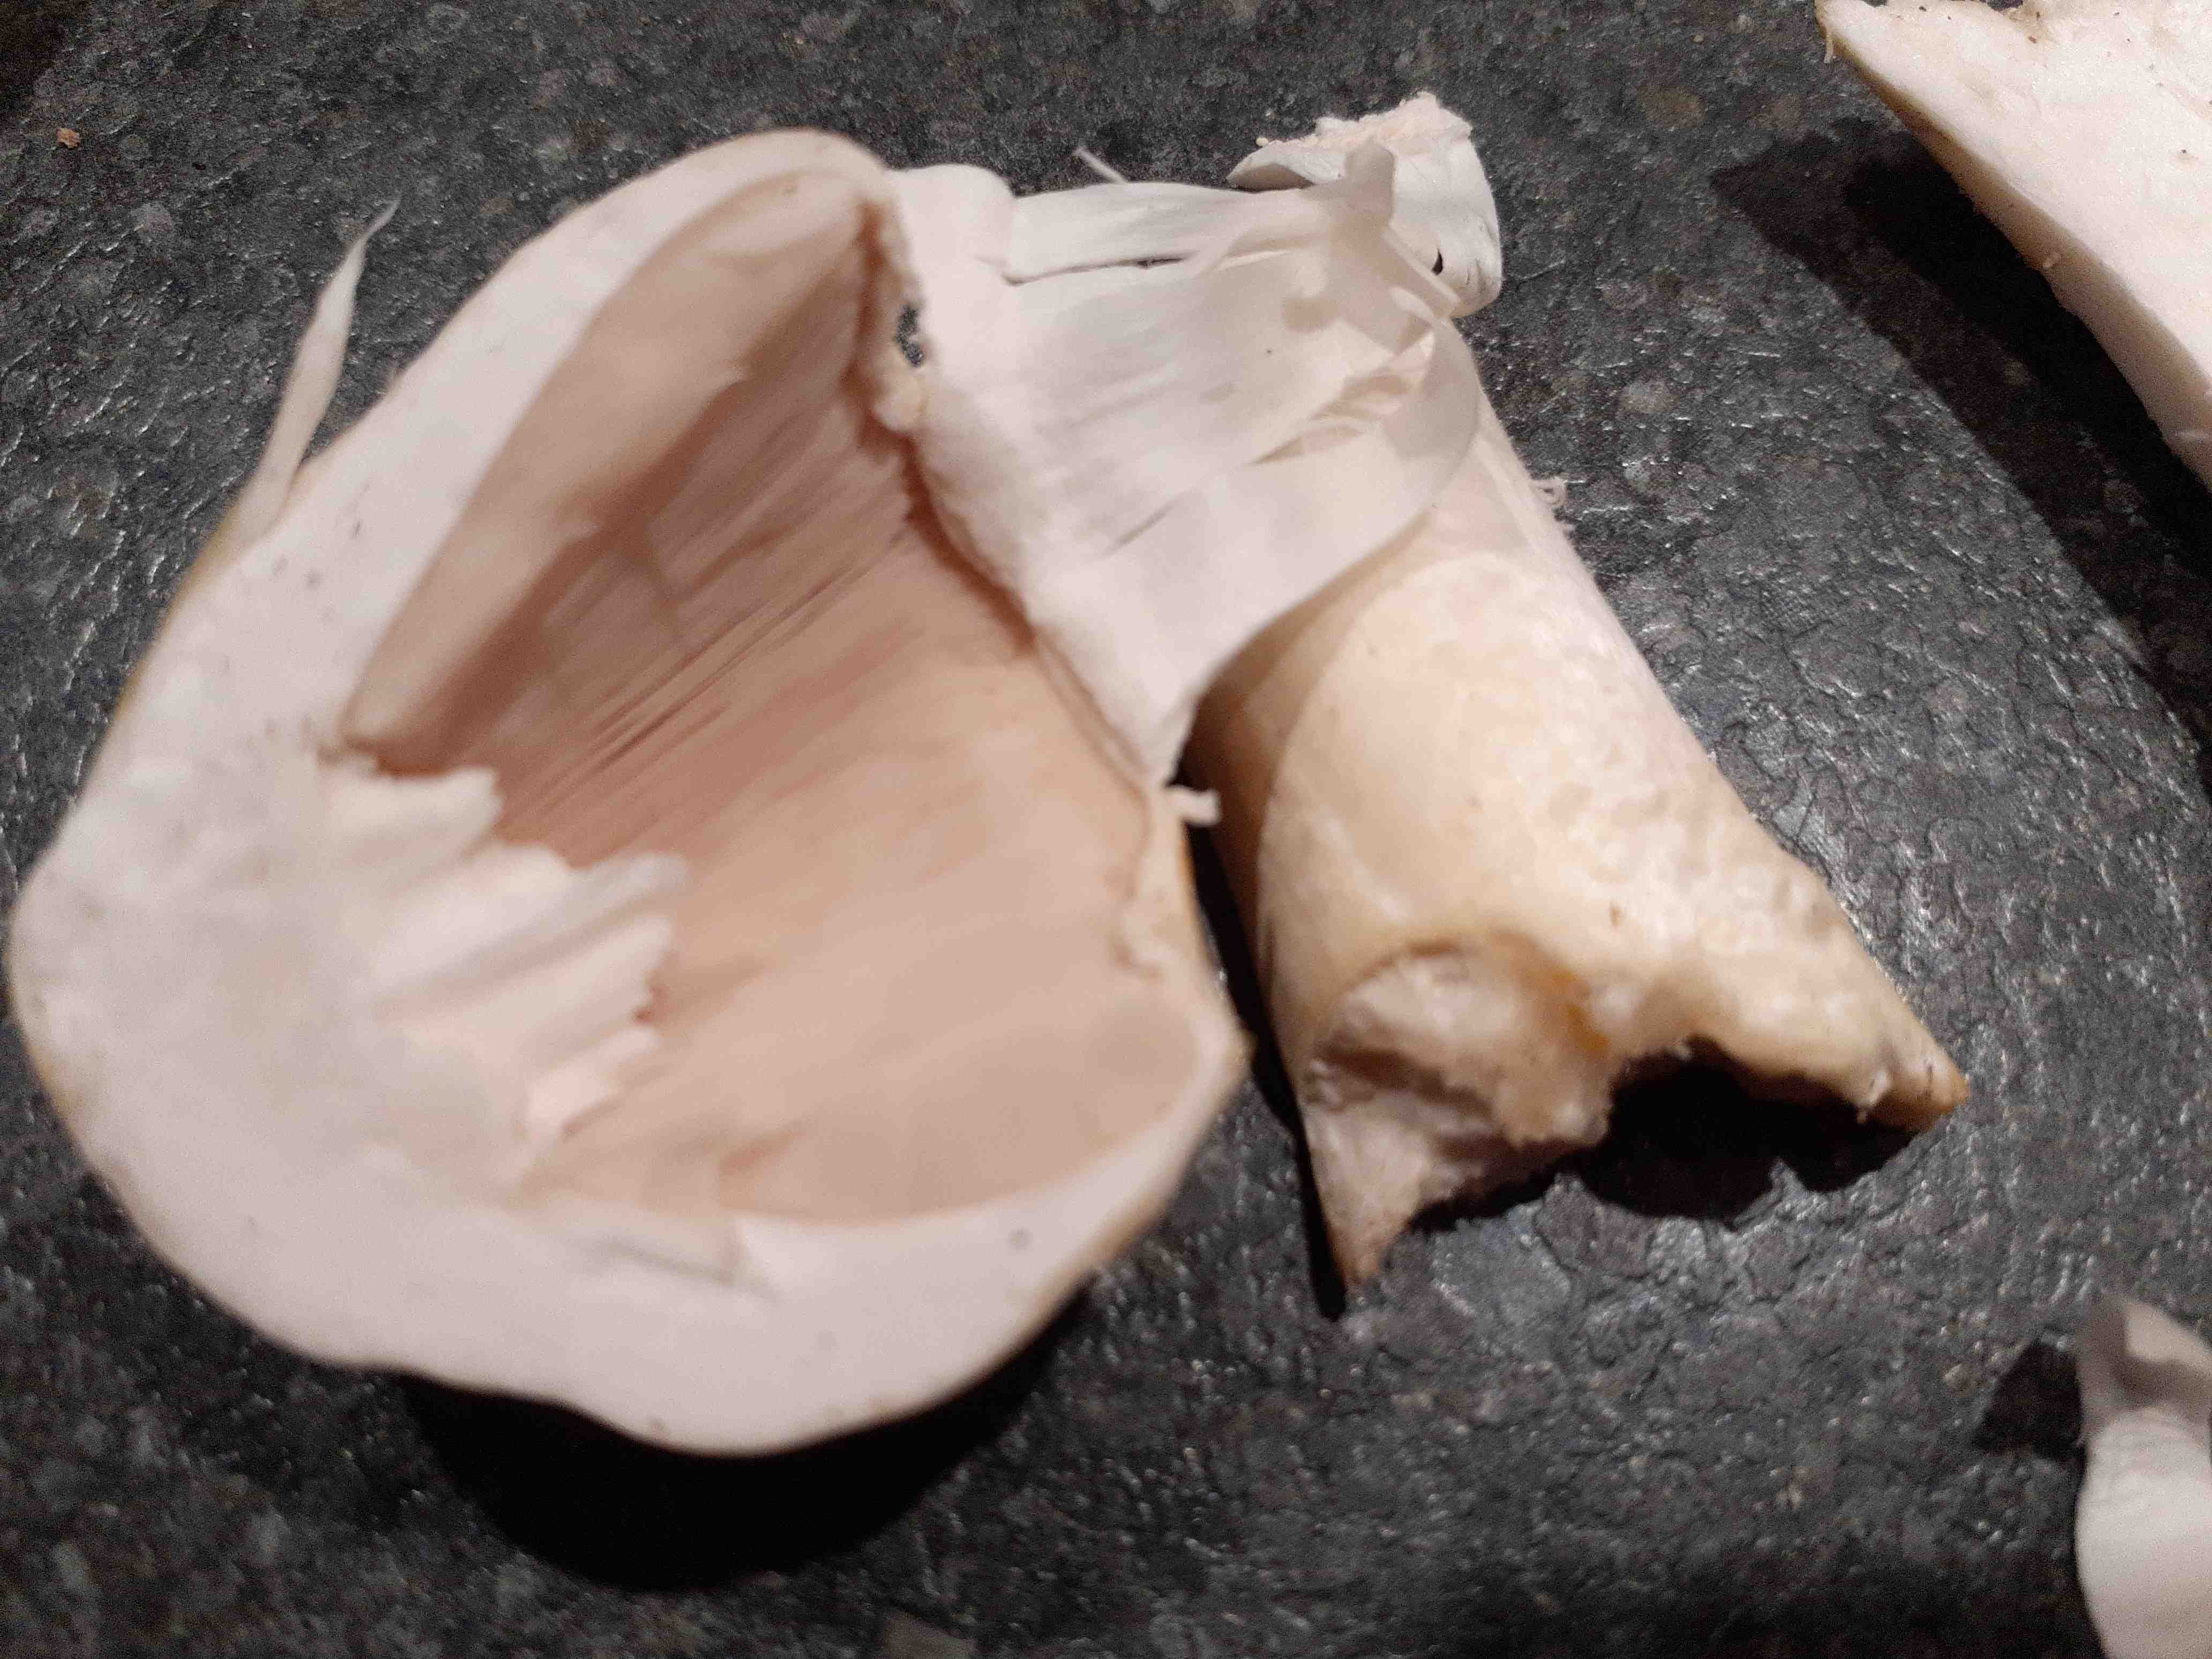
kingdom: Fungi
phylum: Basidiomycota
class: Agaricomycetes
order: Agaricales
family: Agaricaceae
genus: Agaricus
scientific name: Agaricus
